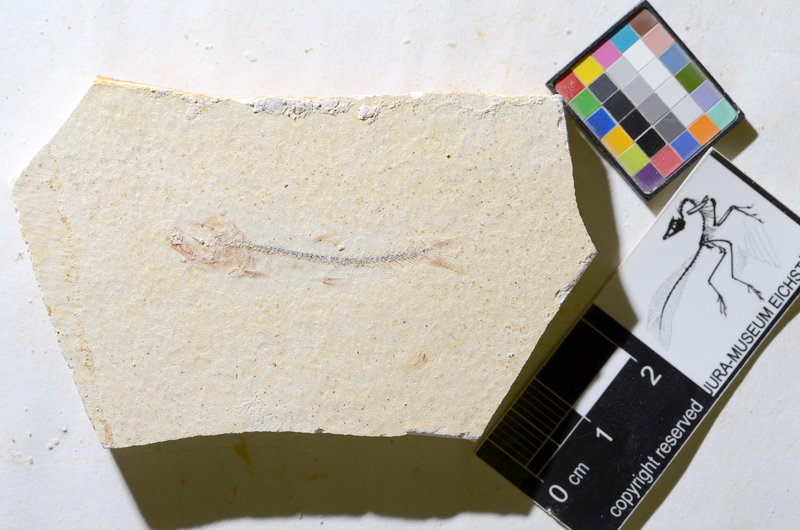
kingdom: Animalia
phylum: Chordata
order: Salmoniformes
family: Orthogonikleithridae
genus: Orthogonikleithrus
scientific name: Orthogonikleithrus hoelli
